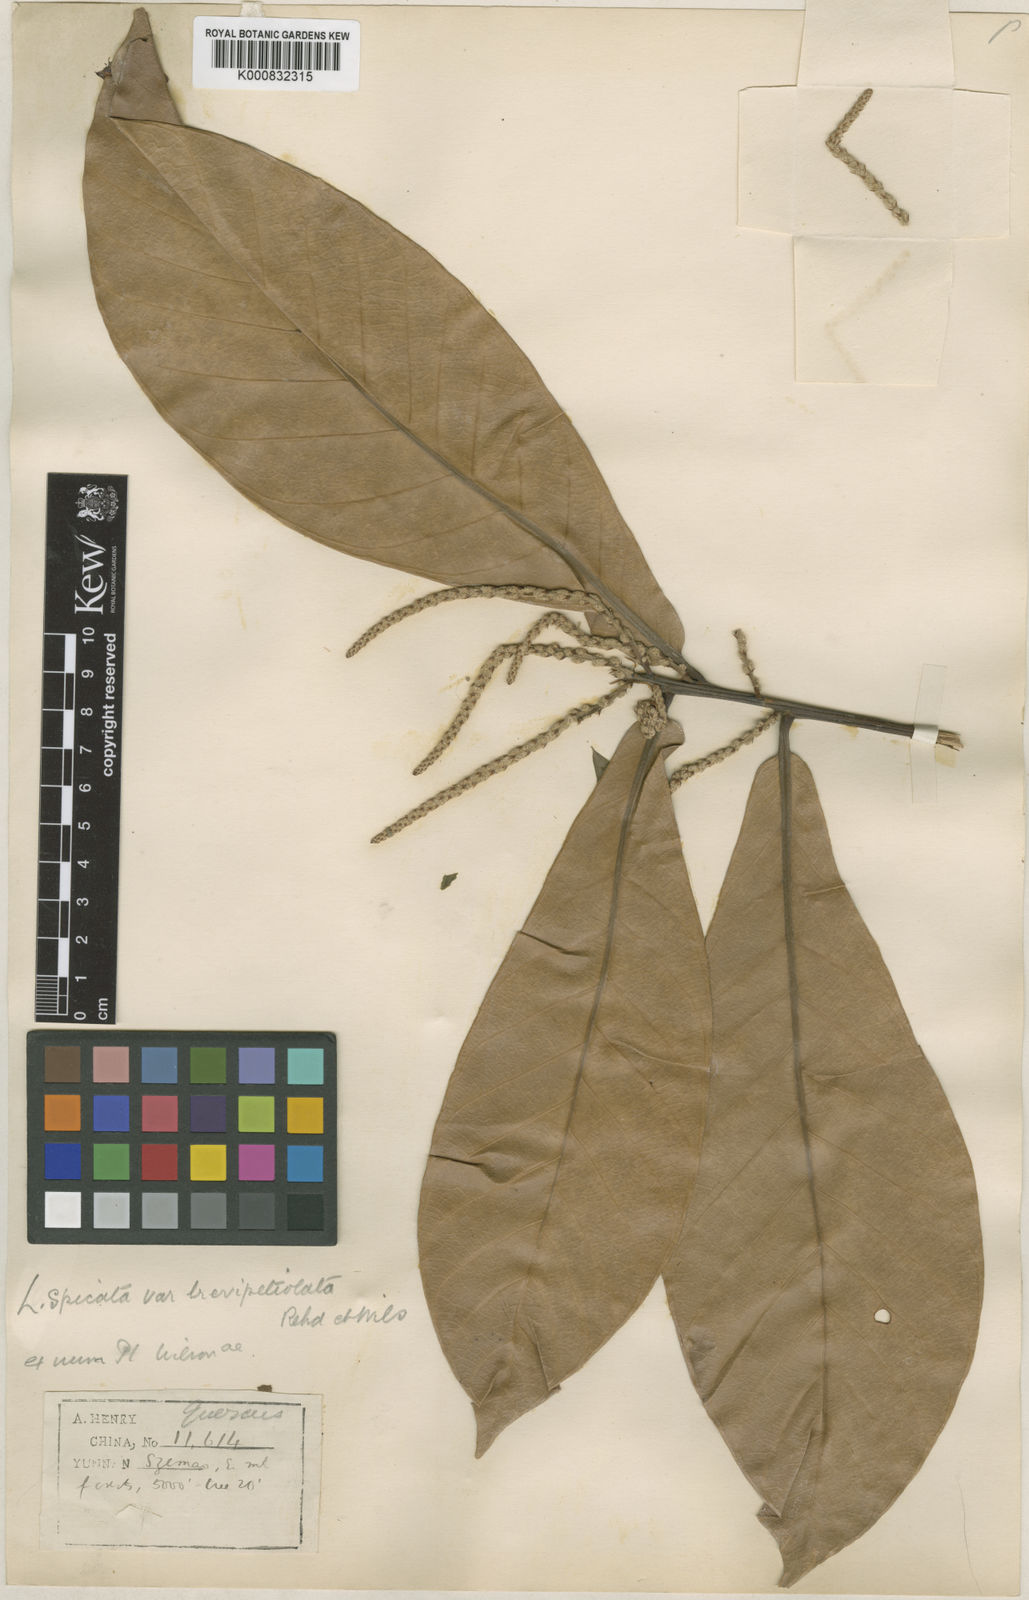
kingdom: Plantae
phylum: Tracheophyta
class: Magnoliopsida
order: Fagales
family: Fagaceae
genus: Lithocarpus
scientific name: Lithocarpus elegans
